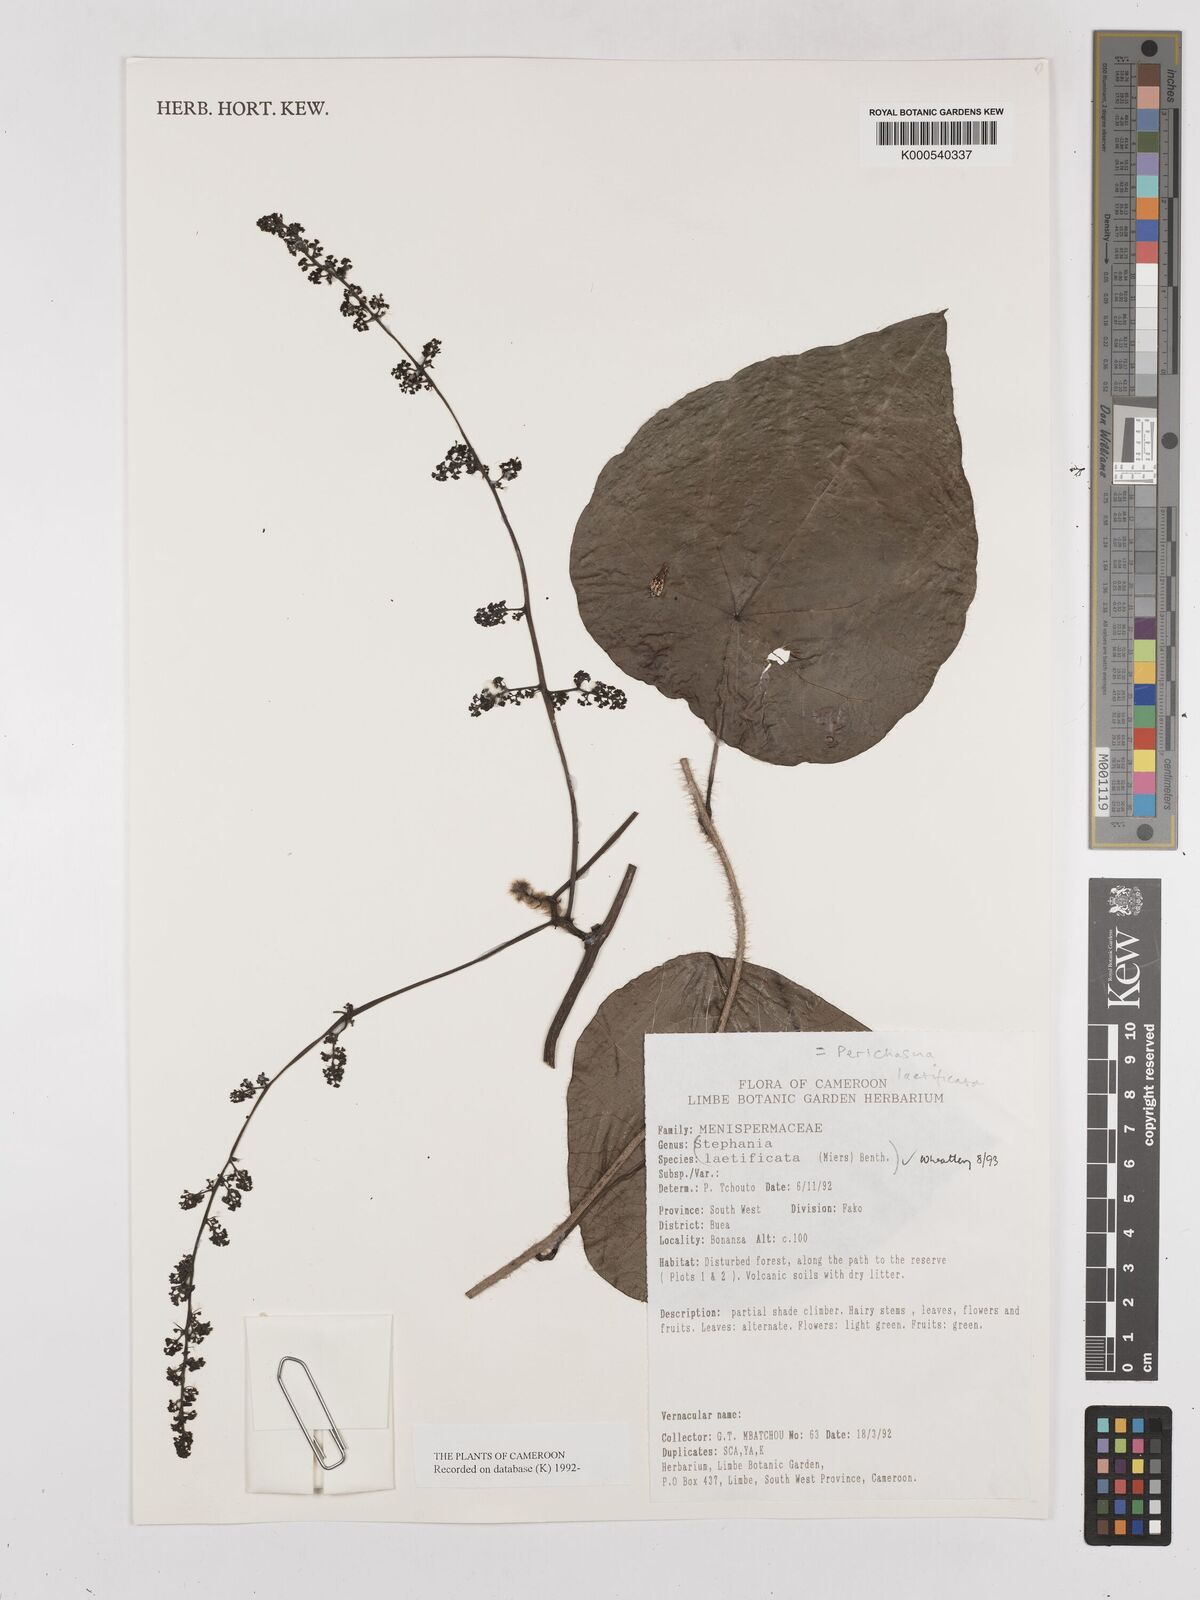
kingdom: Plantae
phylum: Tracheophyta
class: Magnoliopsida
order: Ranunculales
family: Menispermaceae
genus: Perichasma
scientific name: Perichasma laetificata
